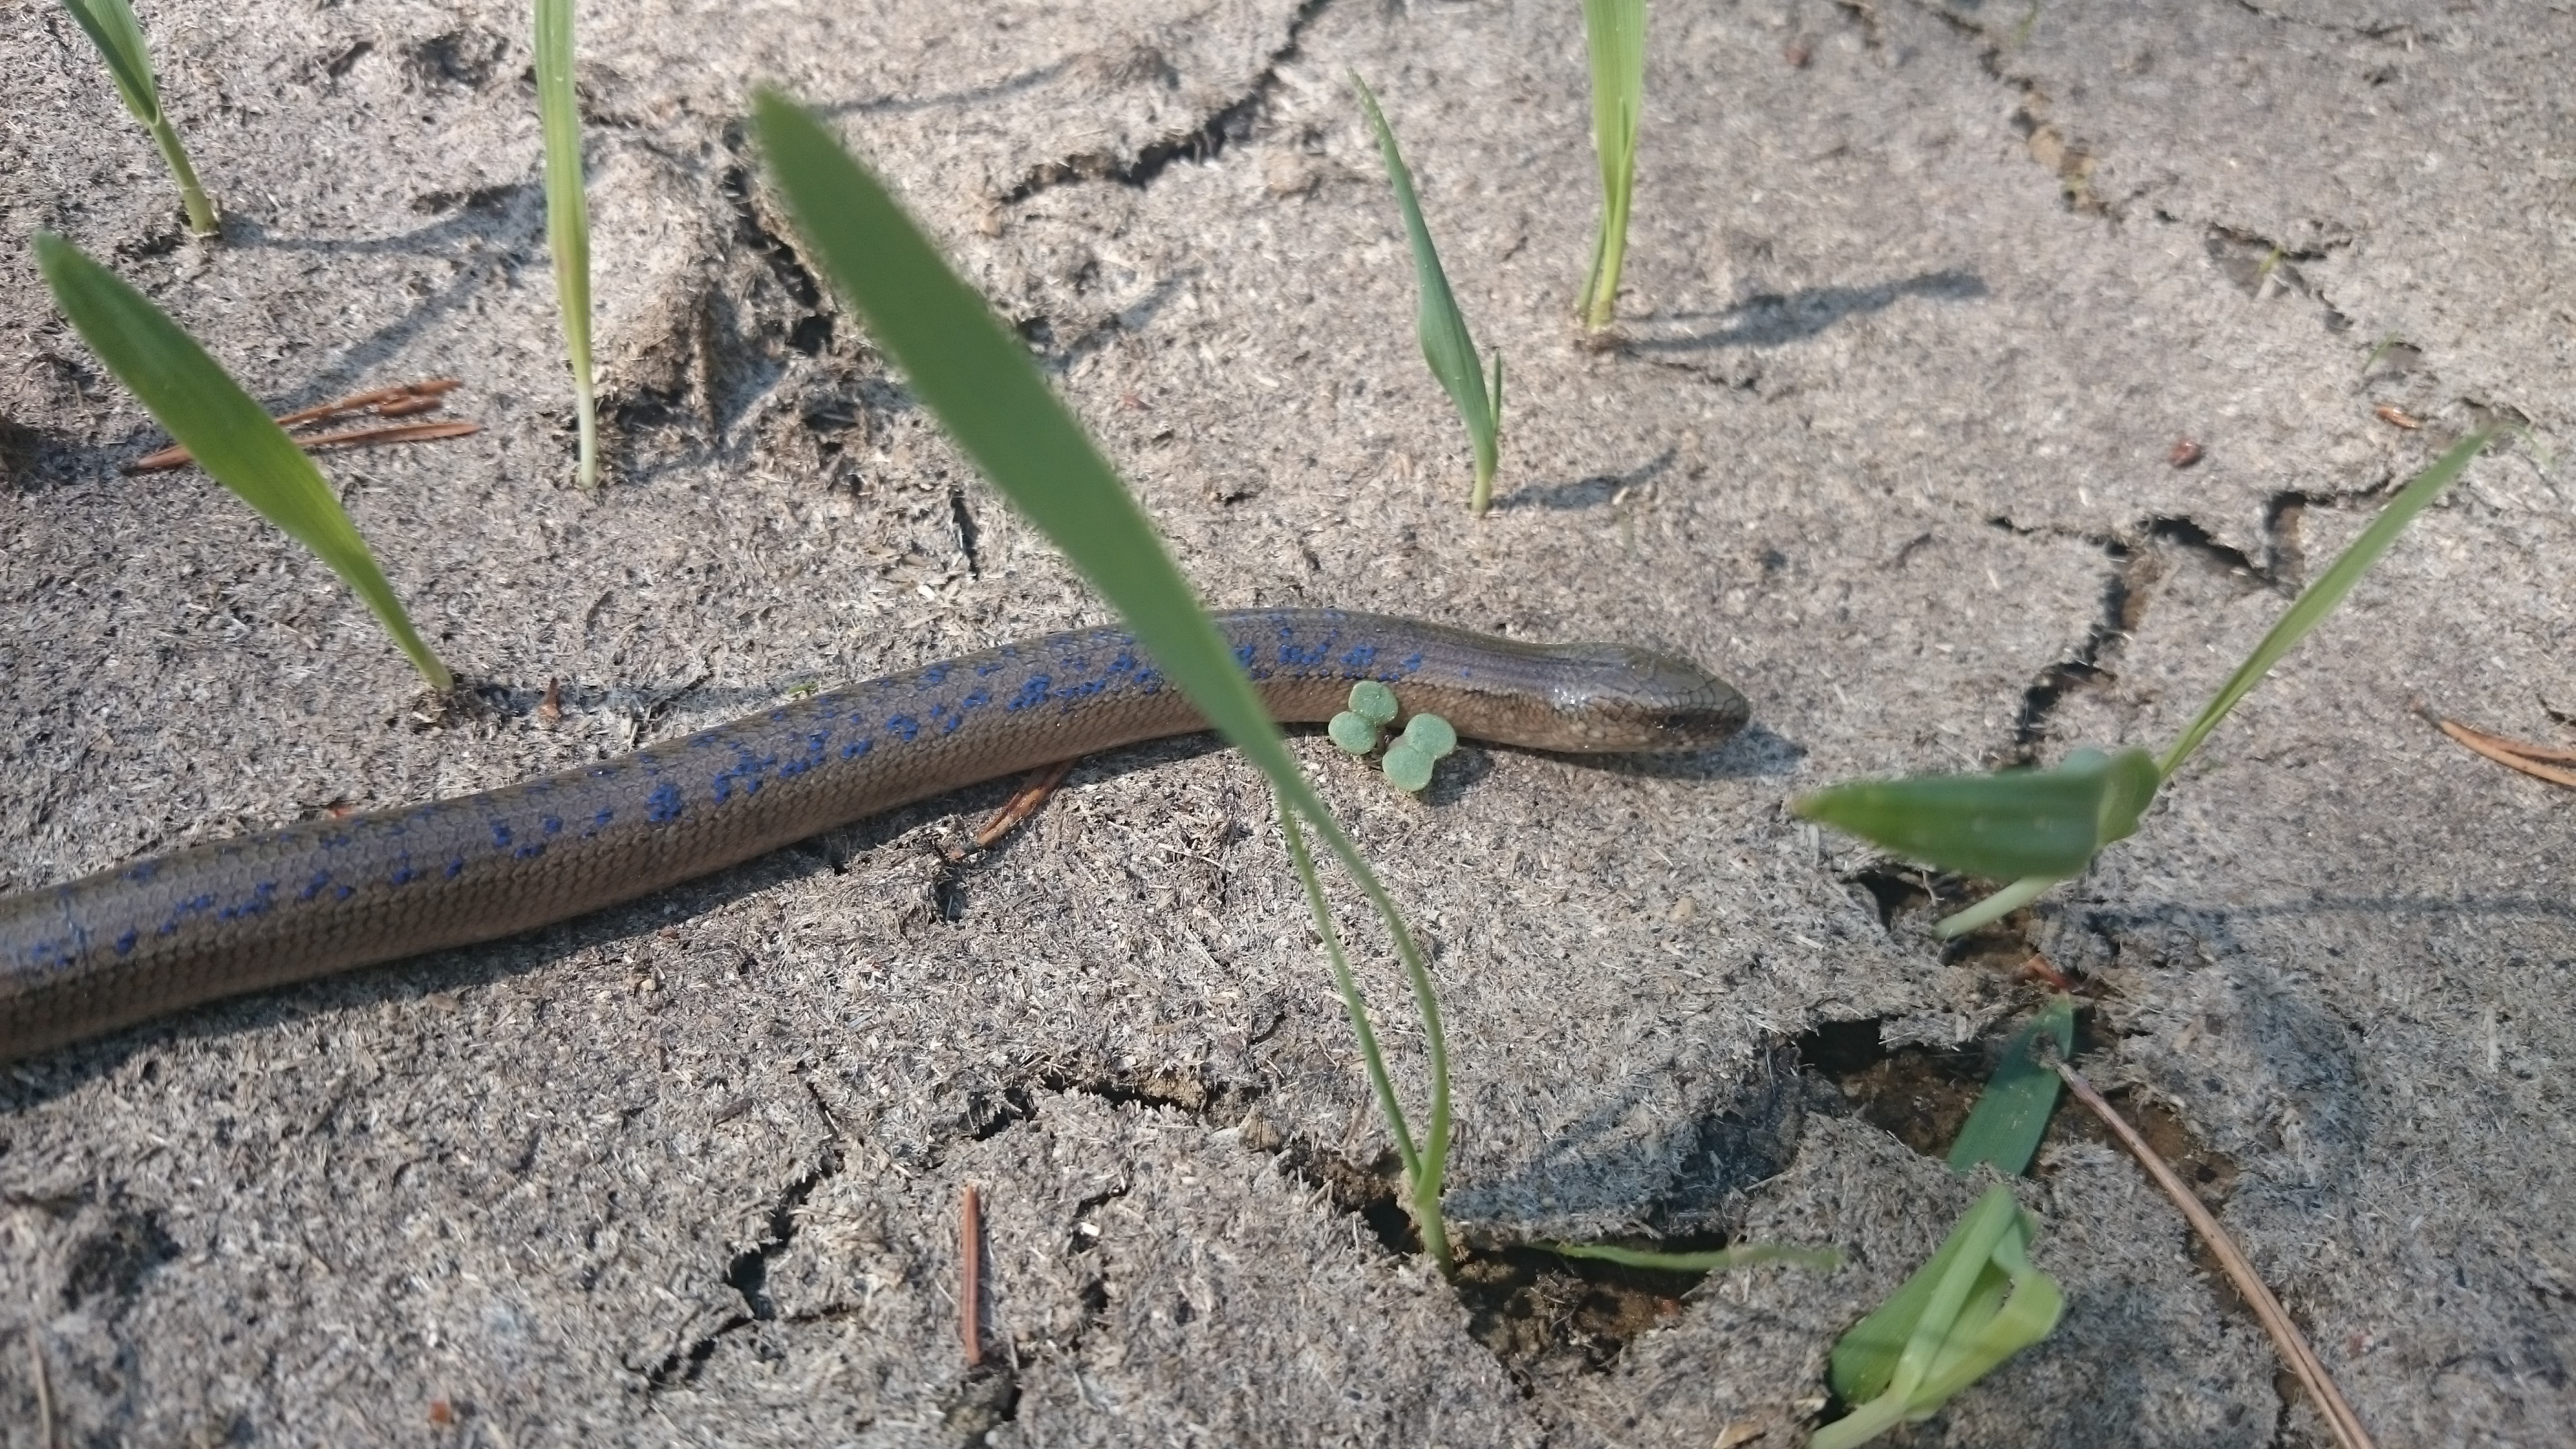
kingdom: Animalia
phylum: Chordata
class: Squamata
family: Anguidae
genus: Anguis
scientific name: Anguis colchica
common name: Slow worm
